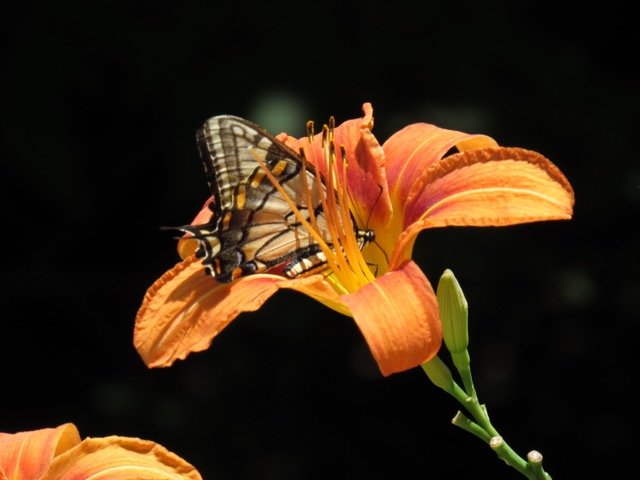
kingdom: Animalia
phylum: Arthropoda
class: Insecta
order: Lepidoptera
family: Papilionidae
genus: Pterourus
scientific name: Pterourus
